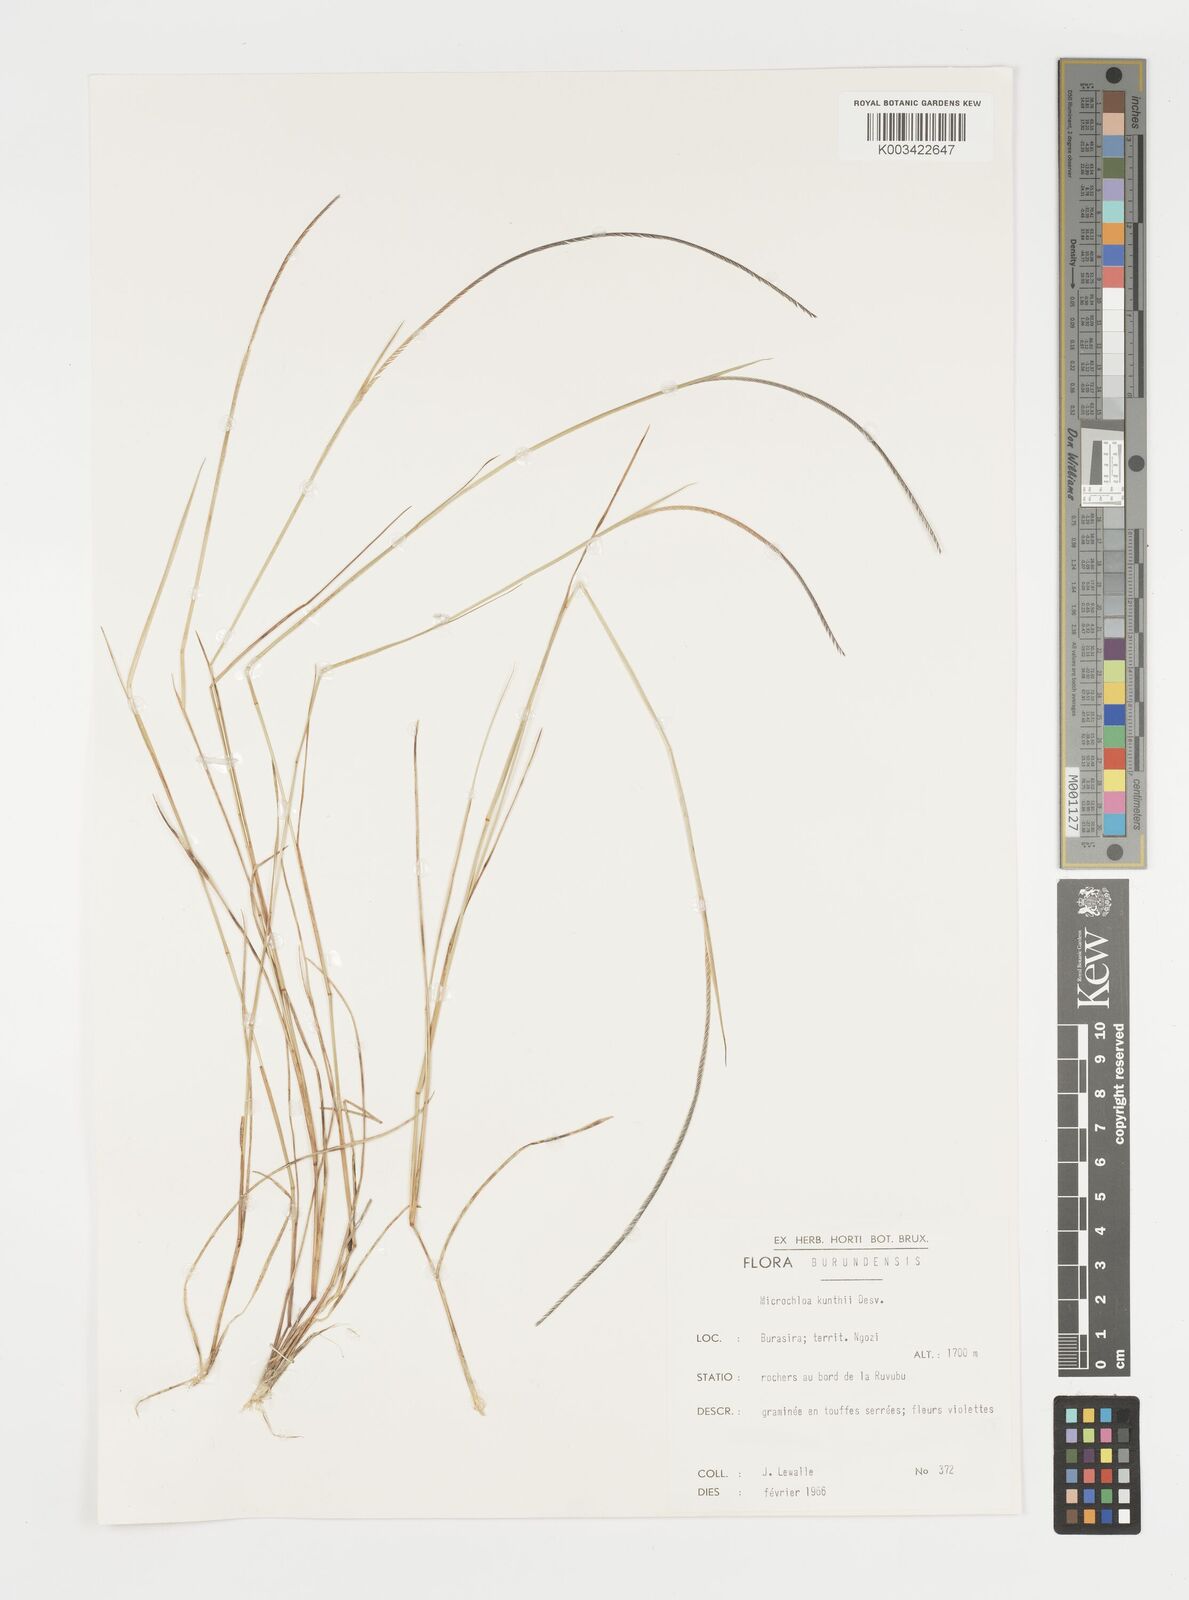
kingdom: Plantae
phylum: Tracheophyta
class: Liliopsida
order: Poales
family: Poaceae
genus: Microchloa
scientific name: Microchloa kunthii
